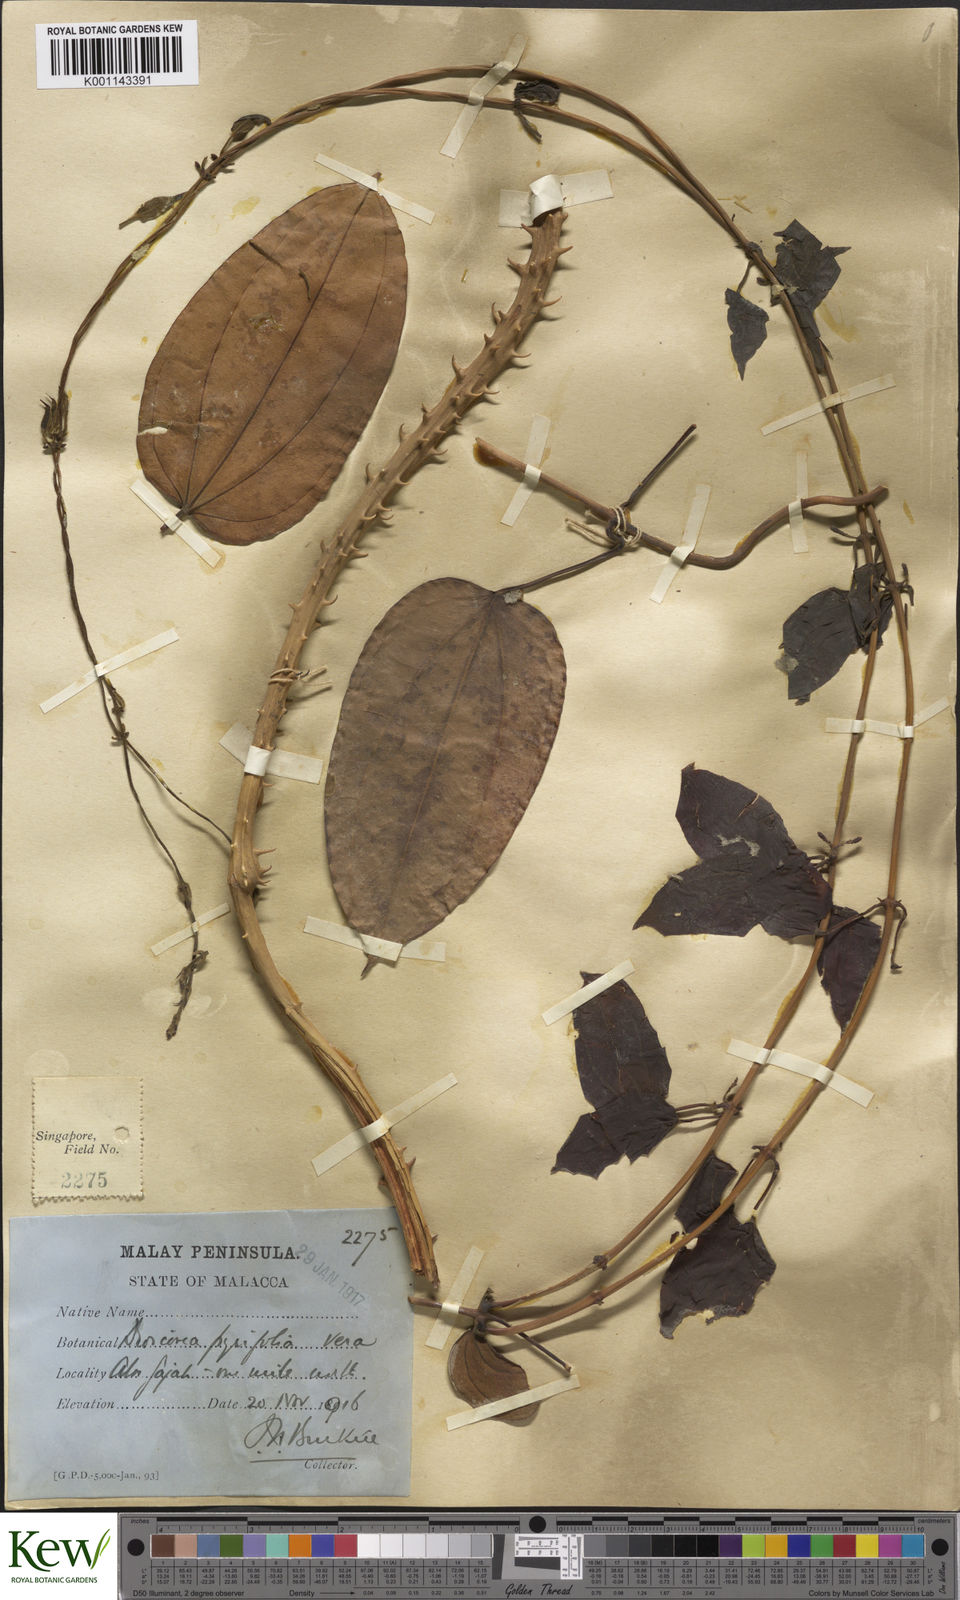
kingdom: Plantae
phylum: Tracheophyta
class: Liliopsida
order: Dioscoreales
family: Dioscoreaceae
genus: Dioscorea
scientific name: Dioscorea pyrifolia
